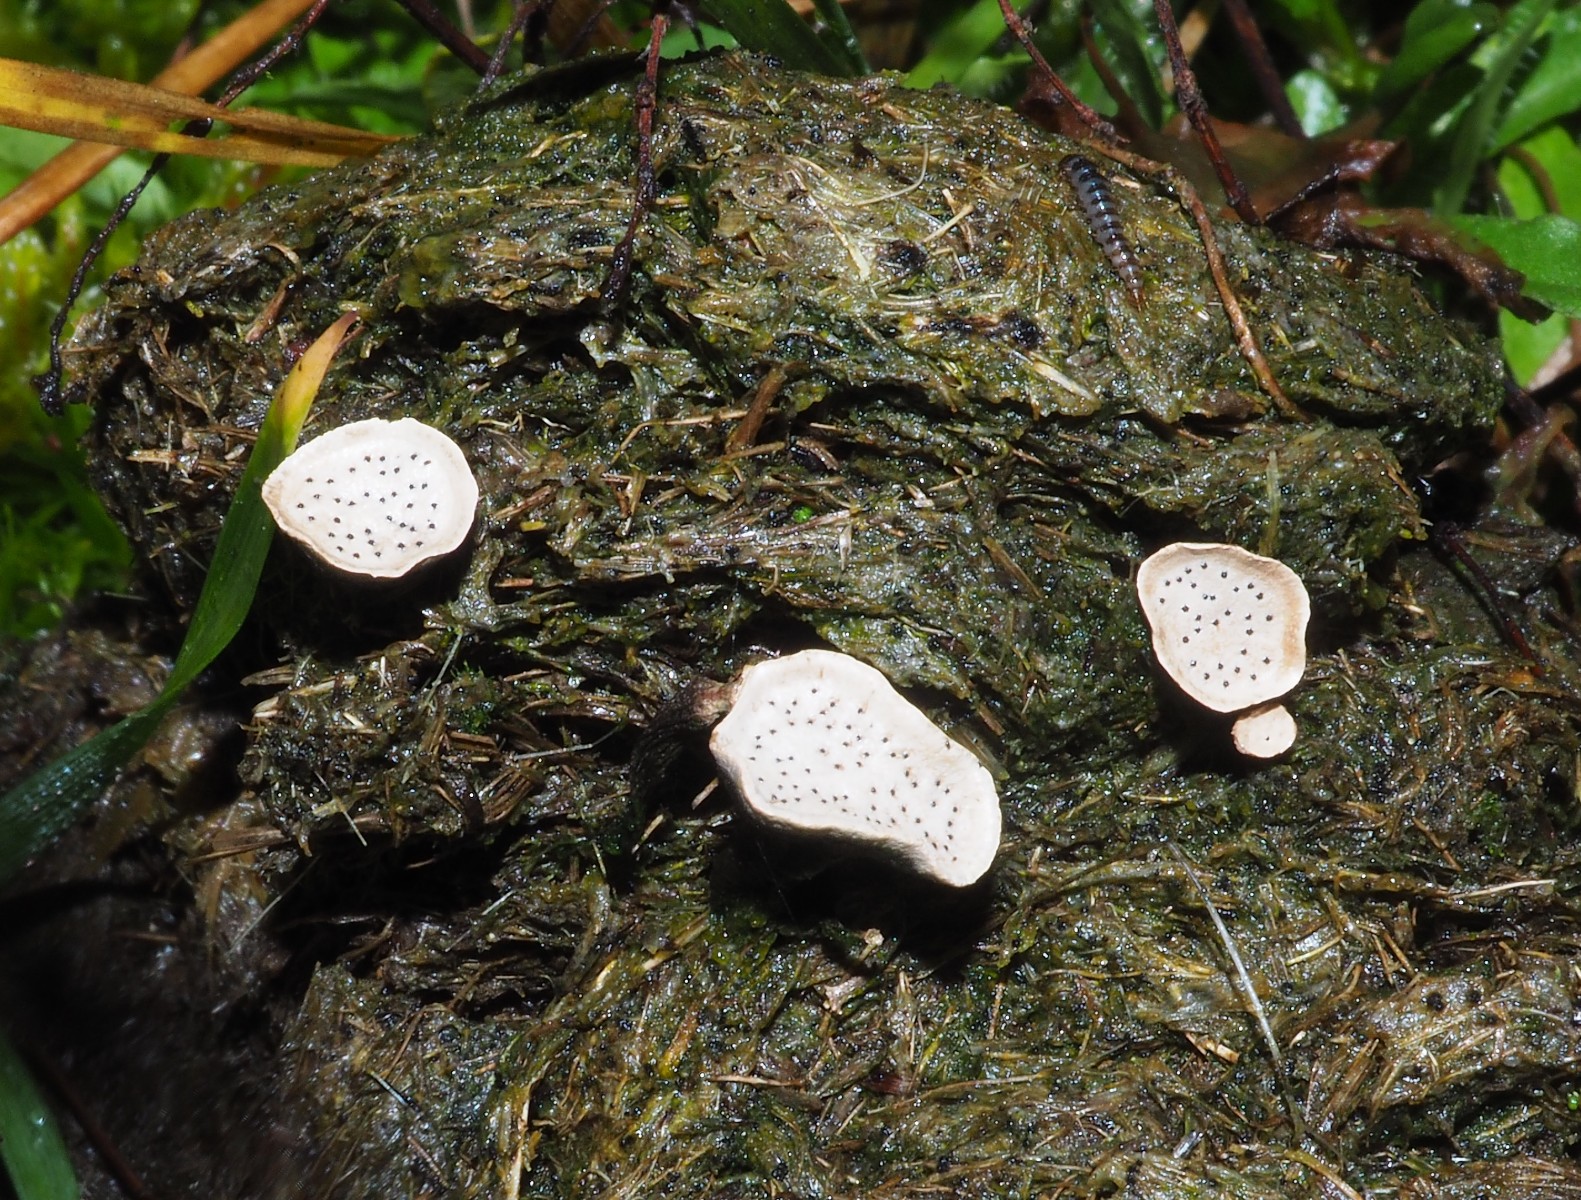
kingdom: Fungi
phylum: Ascomycota
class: Sordariomycetes
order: Xylariales
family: Xylariaceae
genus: Poronia
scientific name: Poronia punctata
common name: stor priksvamp
